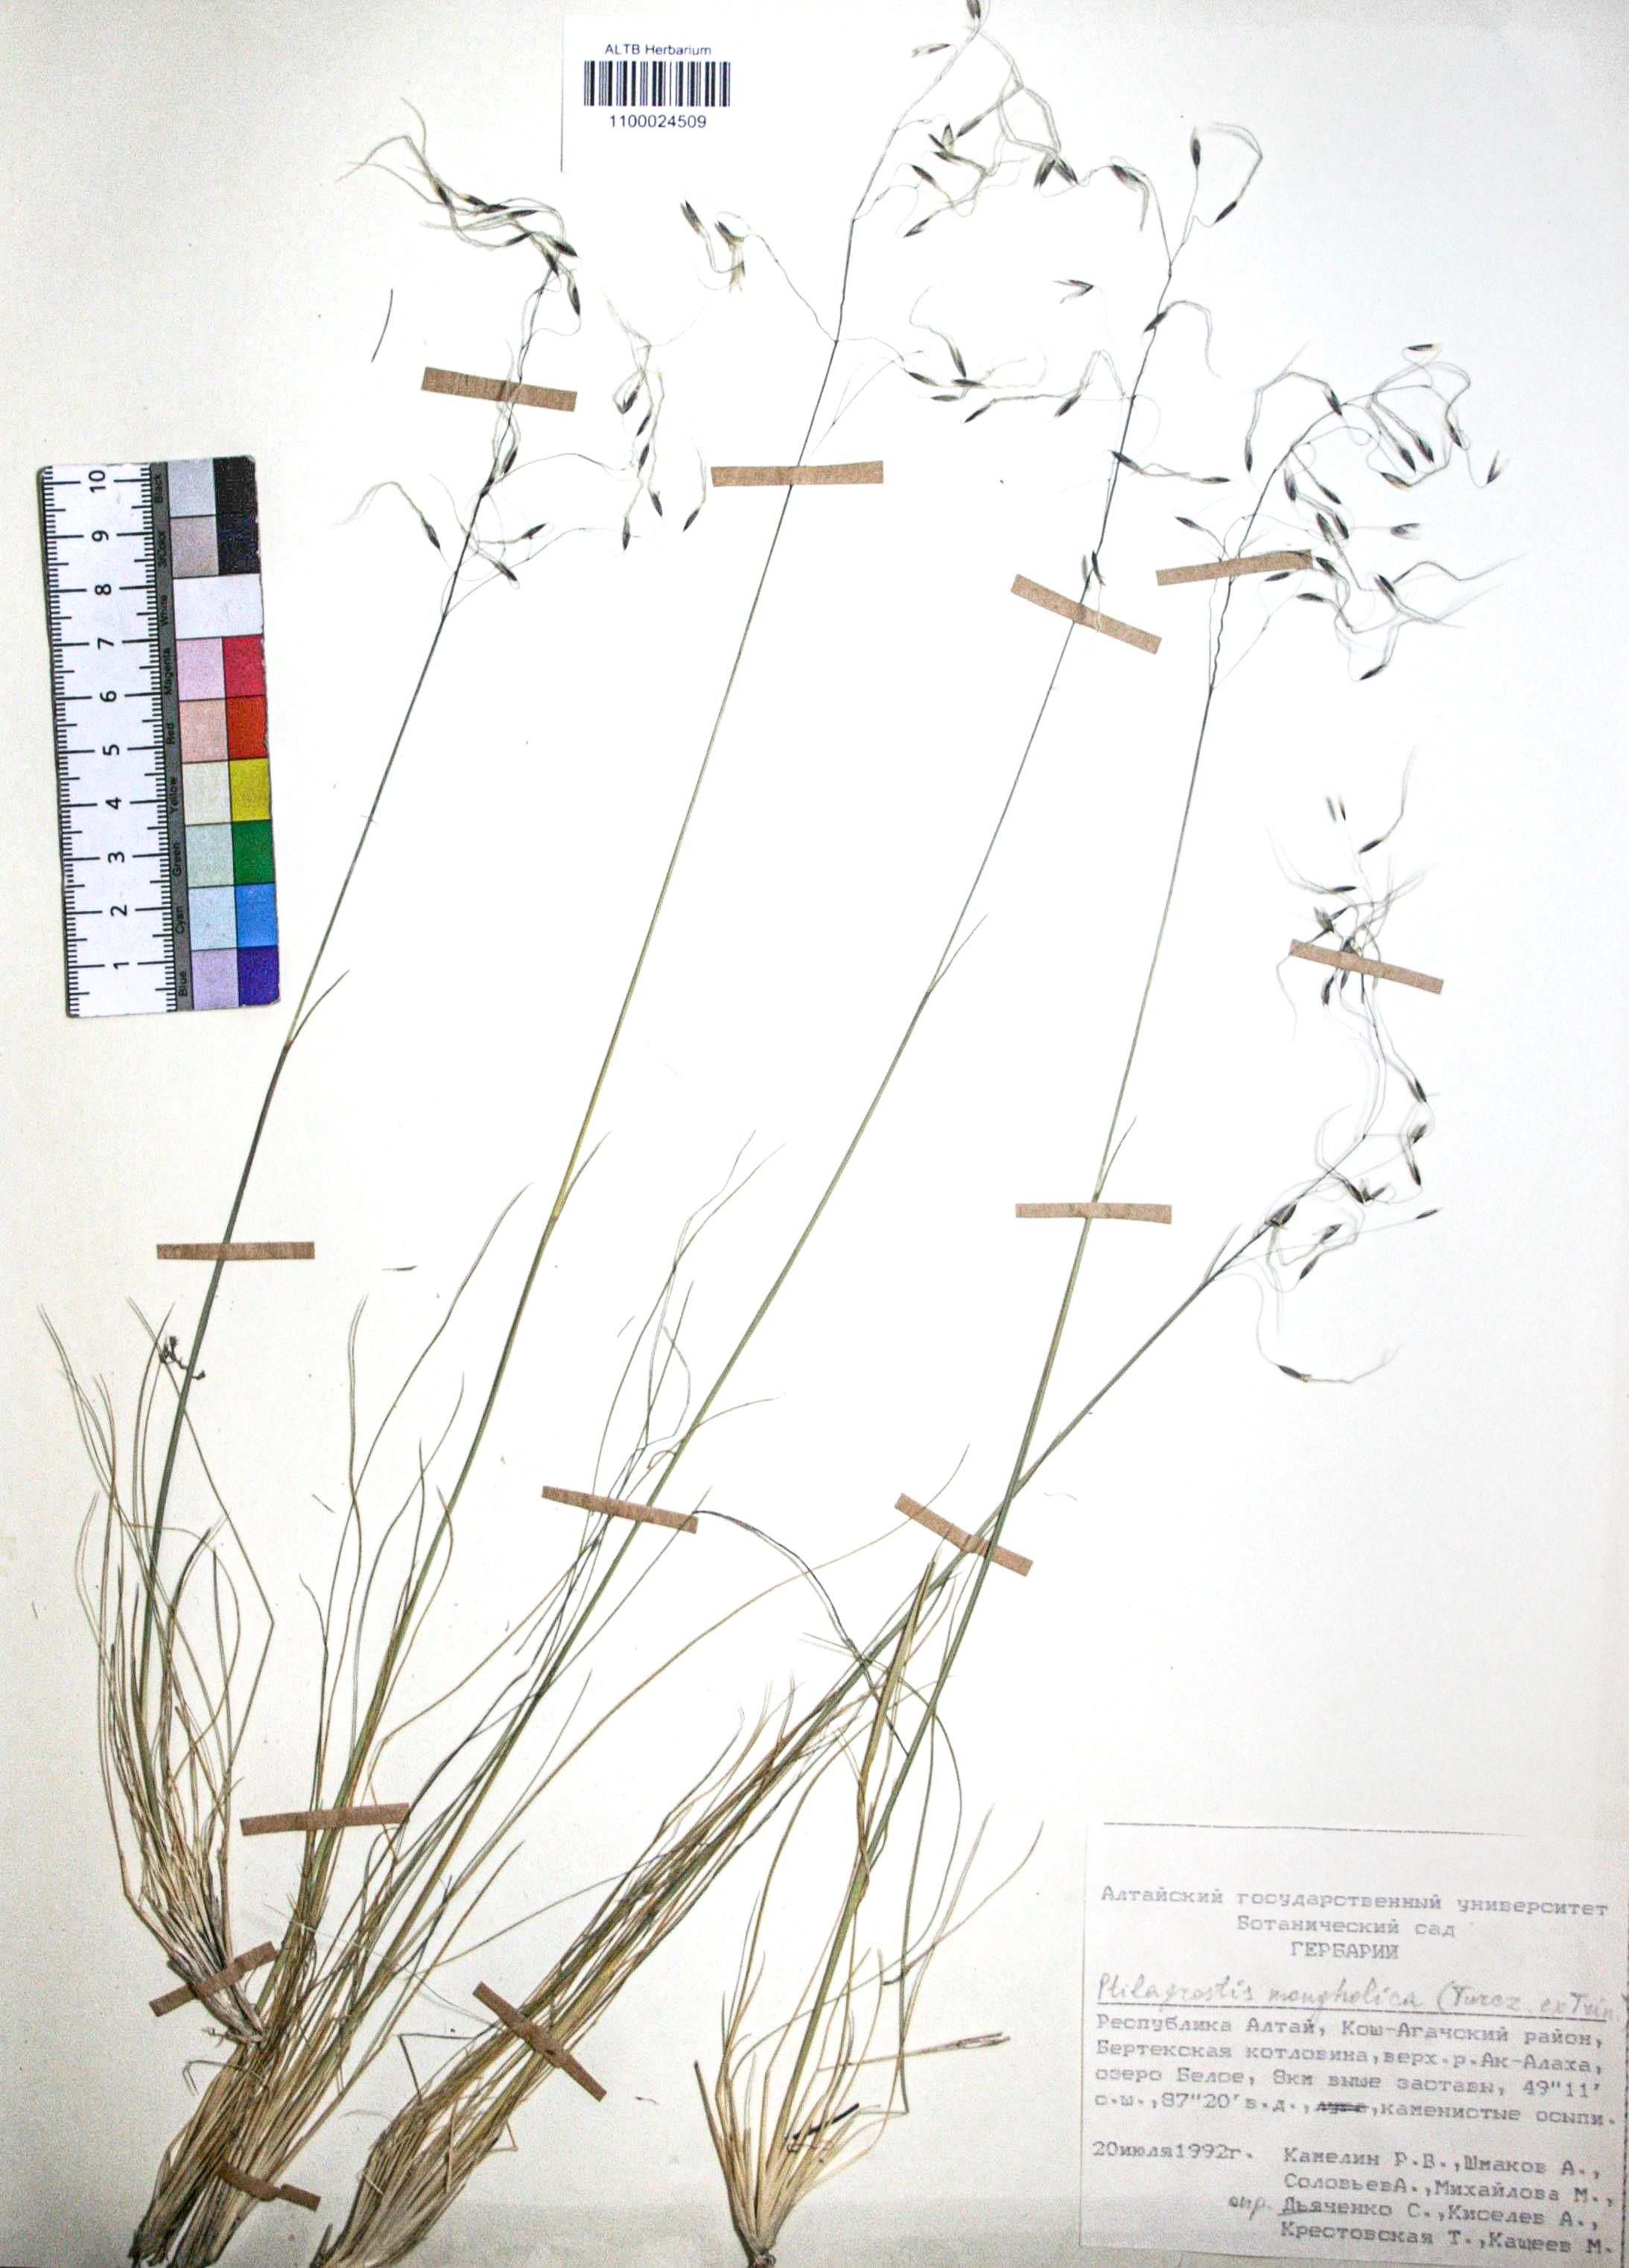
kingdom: Plantae
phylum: Tracheophyta
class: Liliopsida
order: Poales
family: Poaceae
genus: Ptilagrostis
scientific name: Ptilagrostis mongholica
